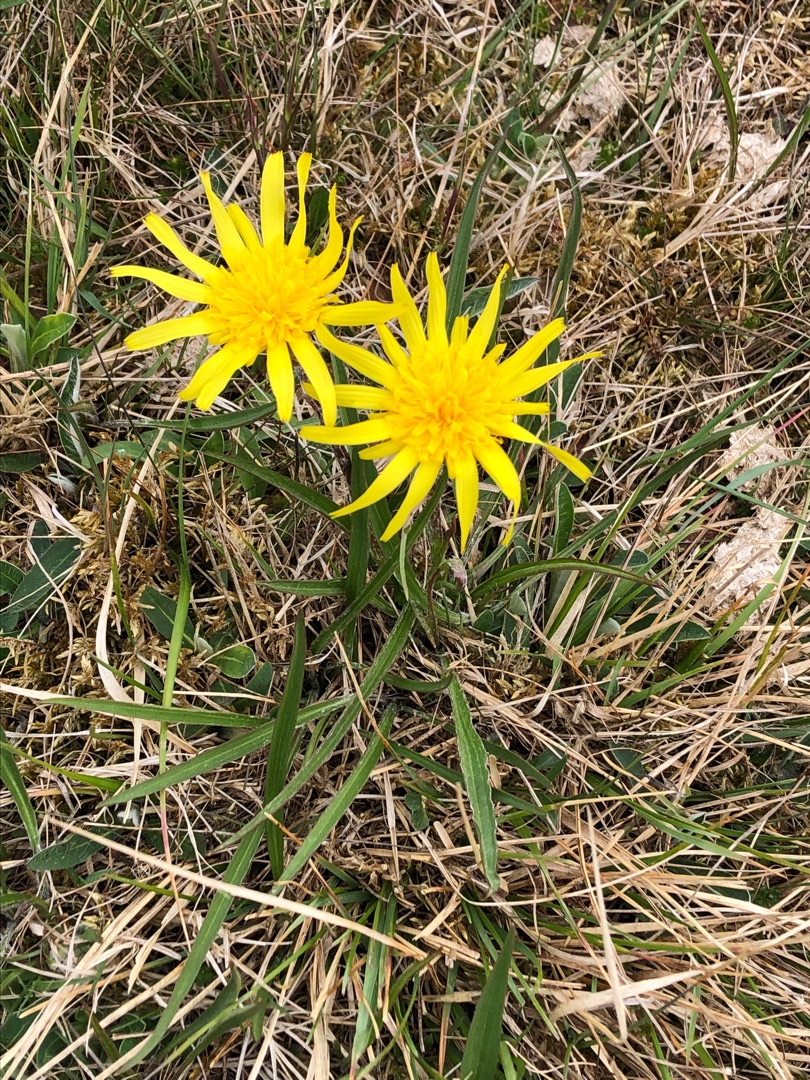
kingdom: Plantae
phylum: Tracheophyta
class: Magnoliopsida
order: Asterales
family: Asteraceae
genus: Scorzonera
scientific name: Scorzonera humilis
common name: Lav skorsoner
